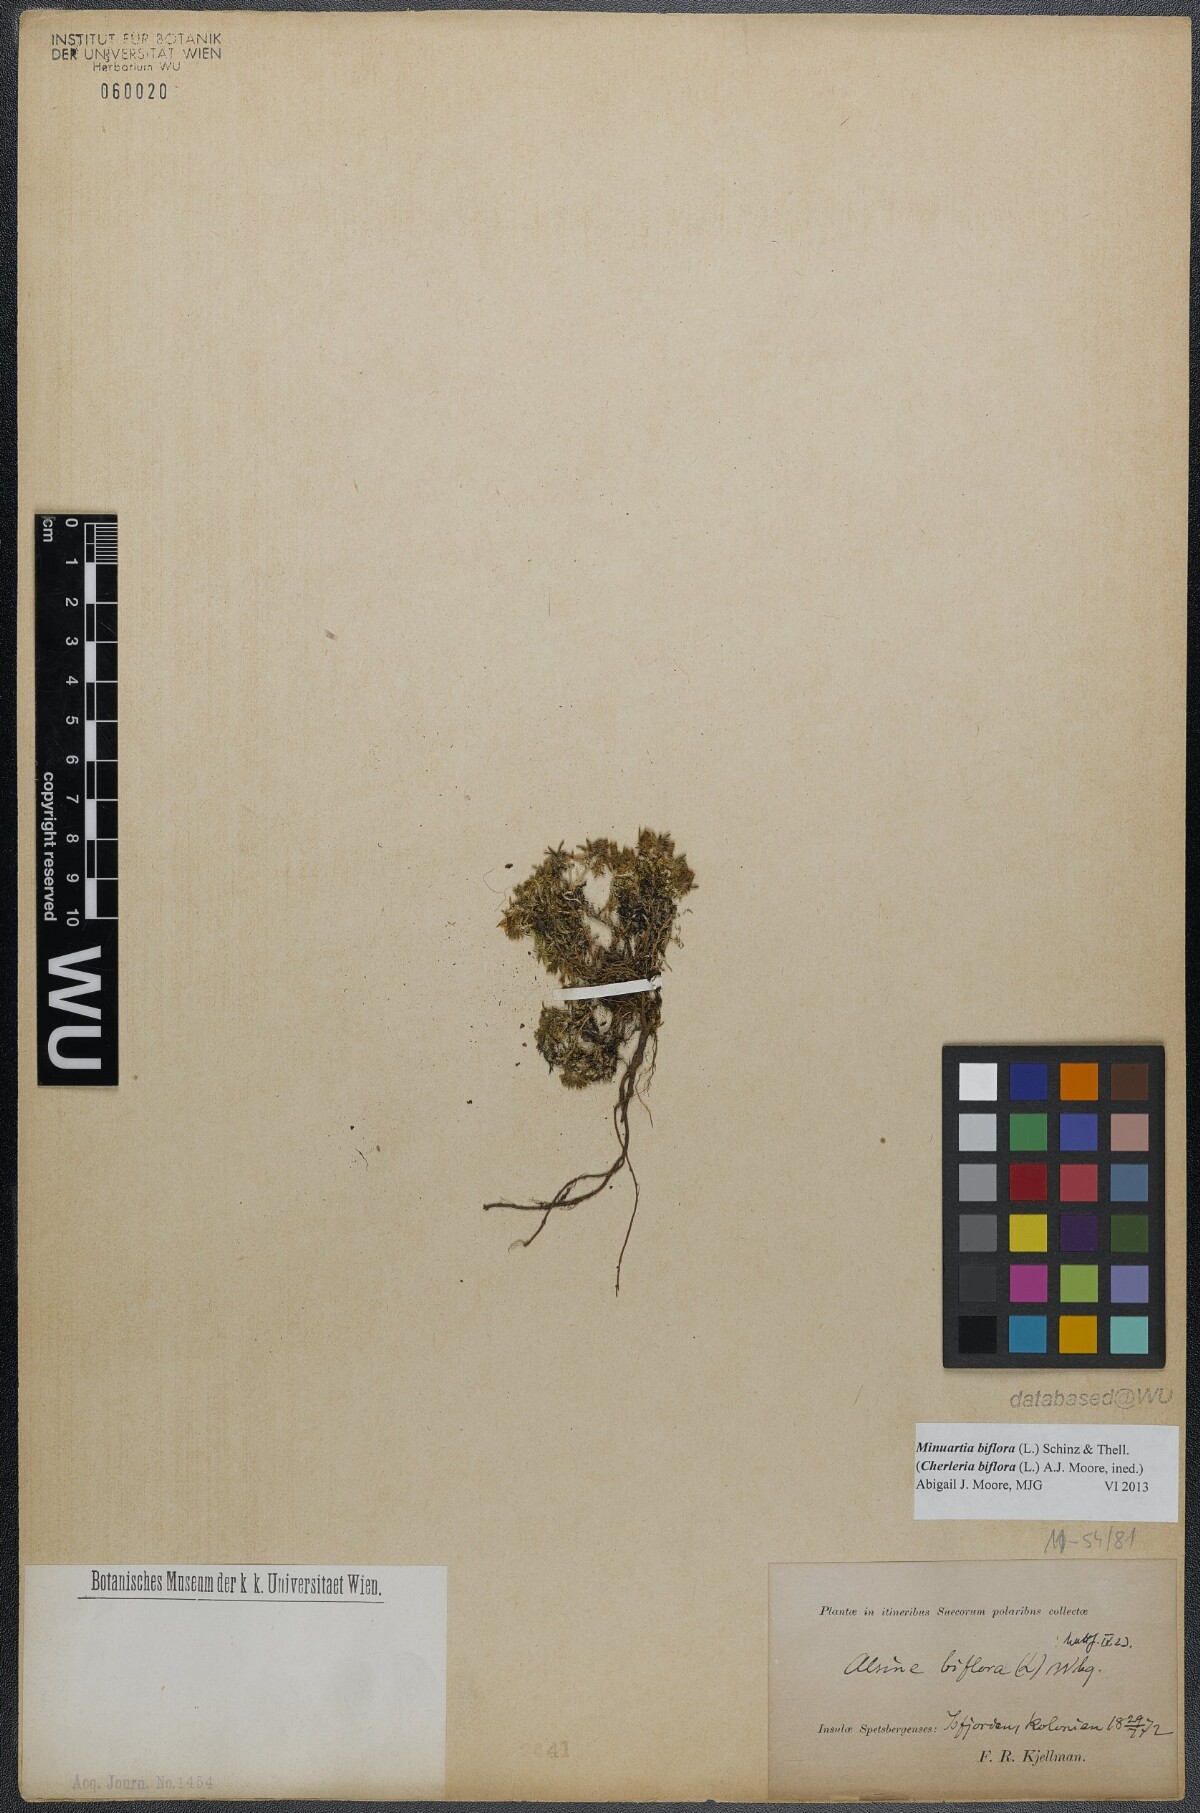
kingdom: Plantae
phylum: Tracheophyta
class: Magnoliopsida
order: Caryophyllales
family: Caryophyllaceae
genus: Cherleria
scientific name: Cherleria biflora
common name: Mountain sandwort
